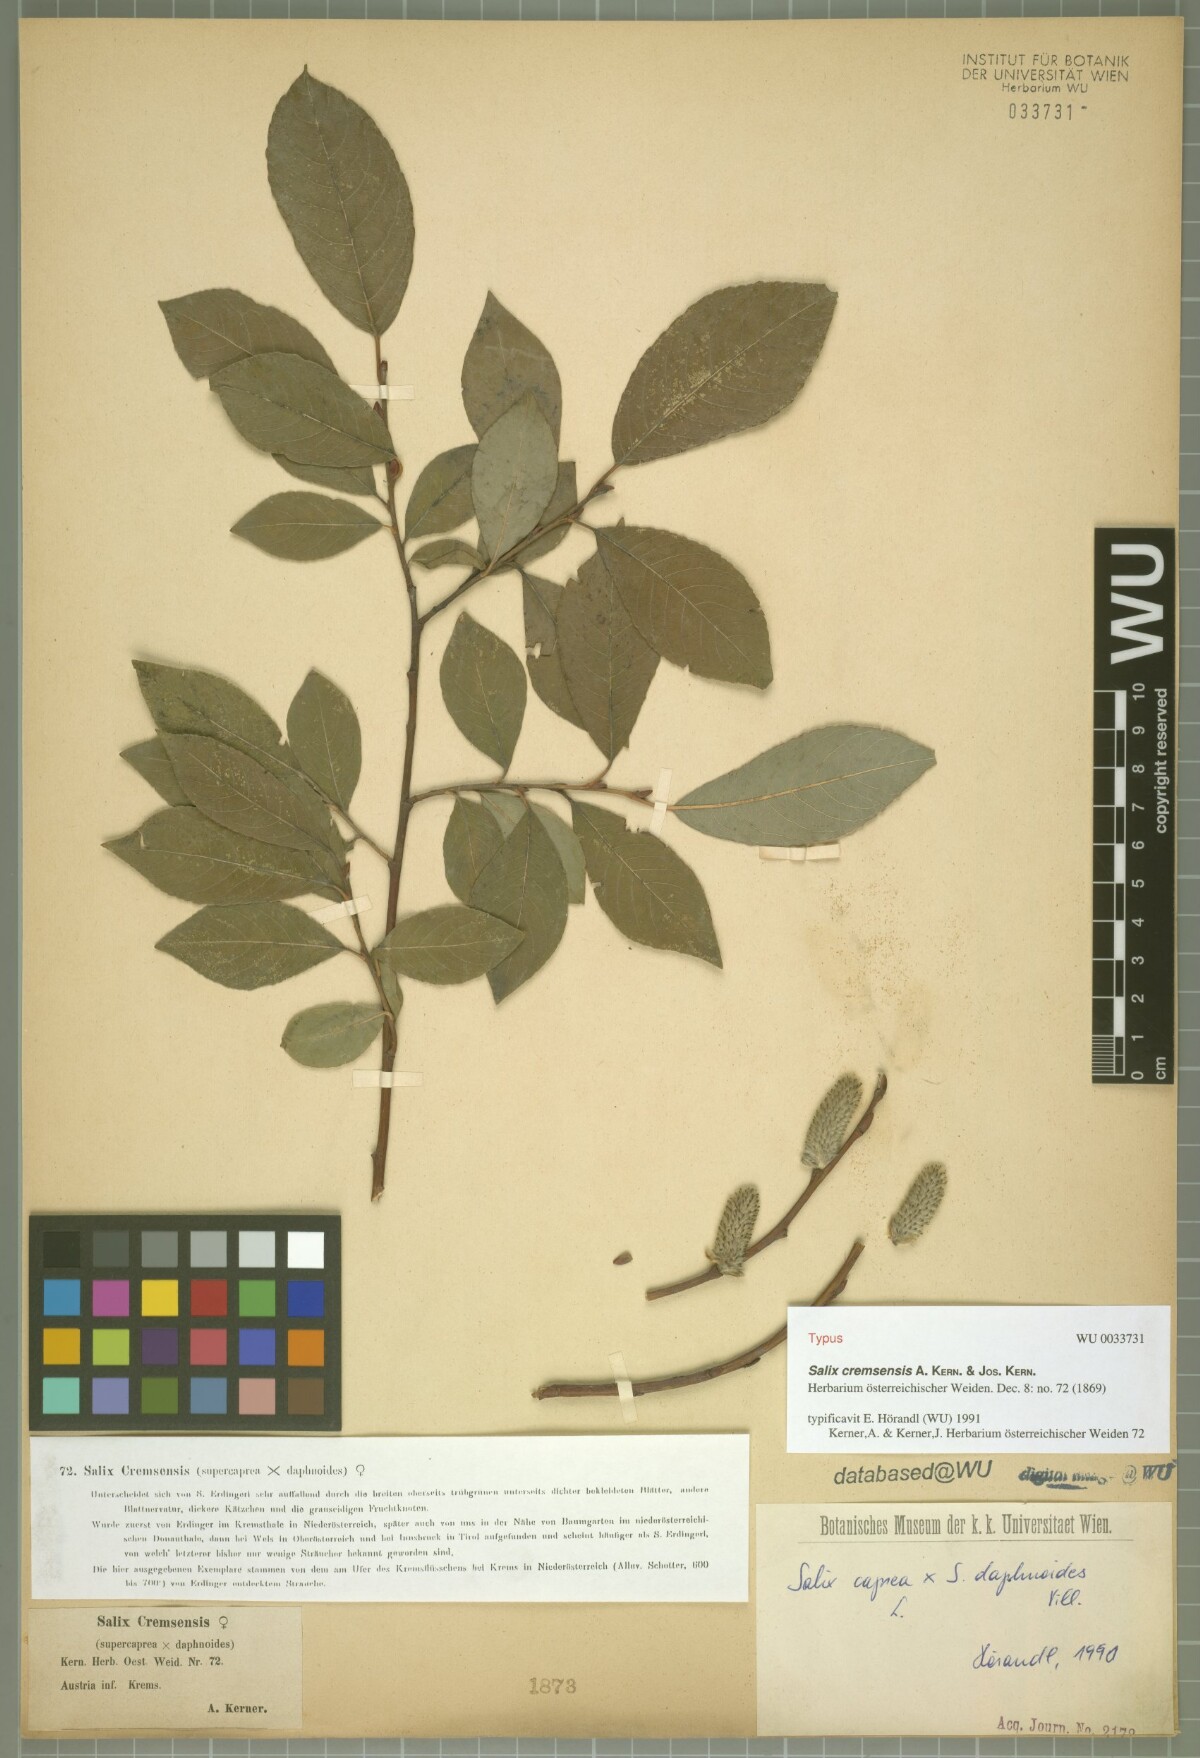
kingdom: Plantae
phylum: Tracheophyta
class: Magnoliopsida
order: Malpighiales
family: Salicaceae
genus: Salix
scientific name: Salix erdingeri
